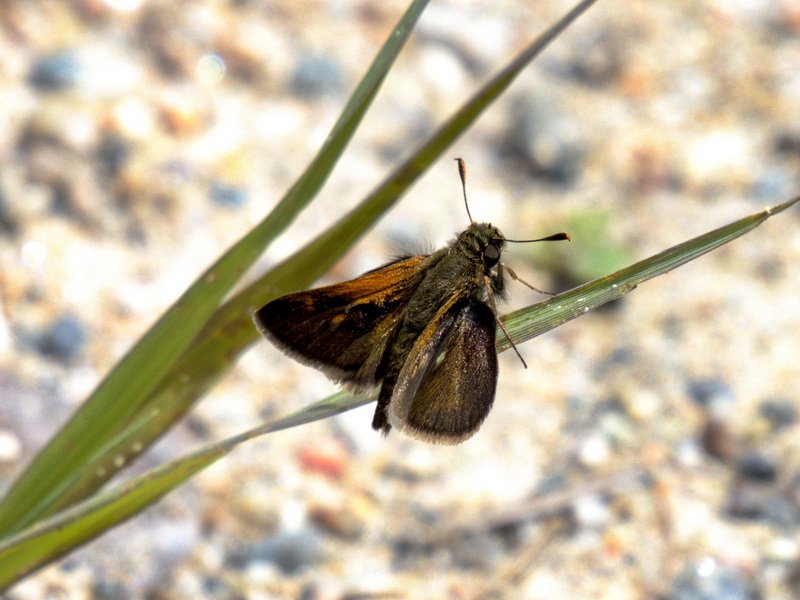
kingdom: Animalia
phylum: Arthropoda
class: Insecta
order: Lepidoptera
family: Hesperiidae
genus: Polites
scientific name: Polites themistocles
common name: Tawny-edged Skipper
